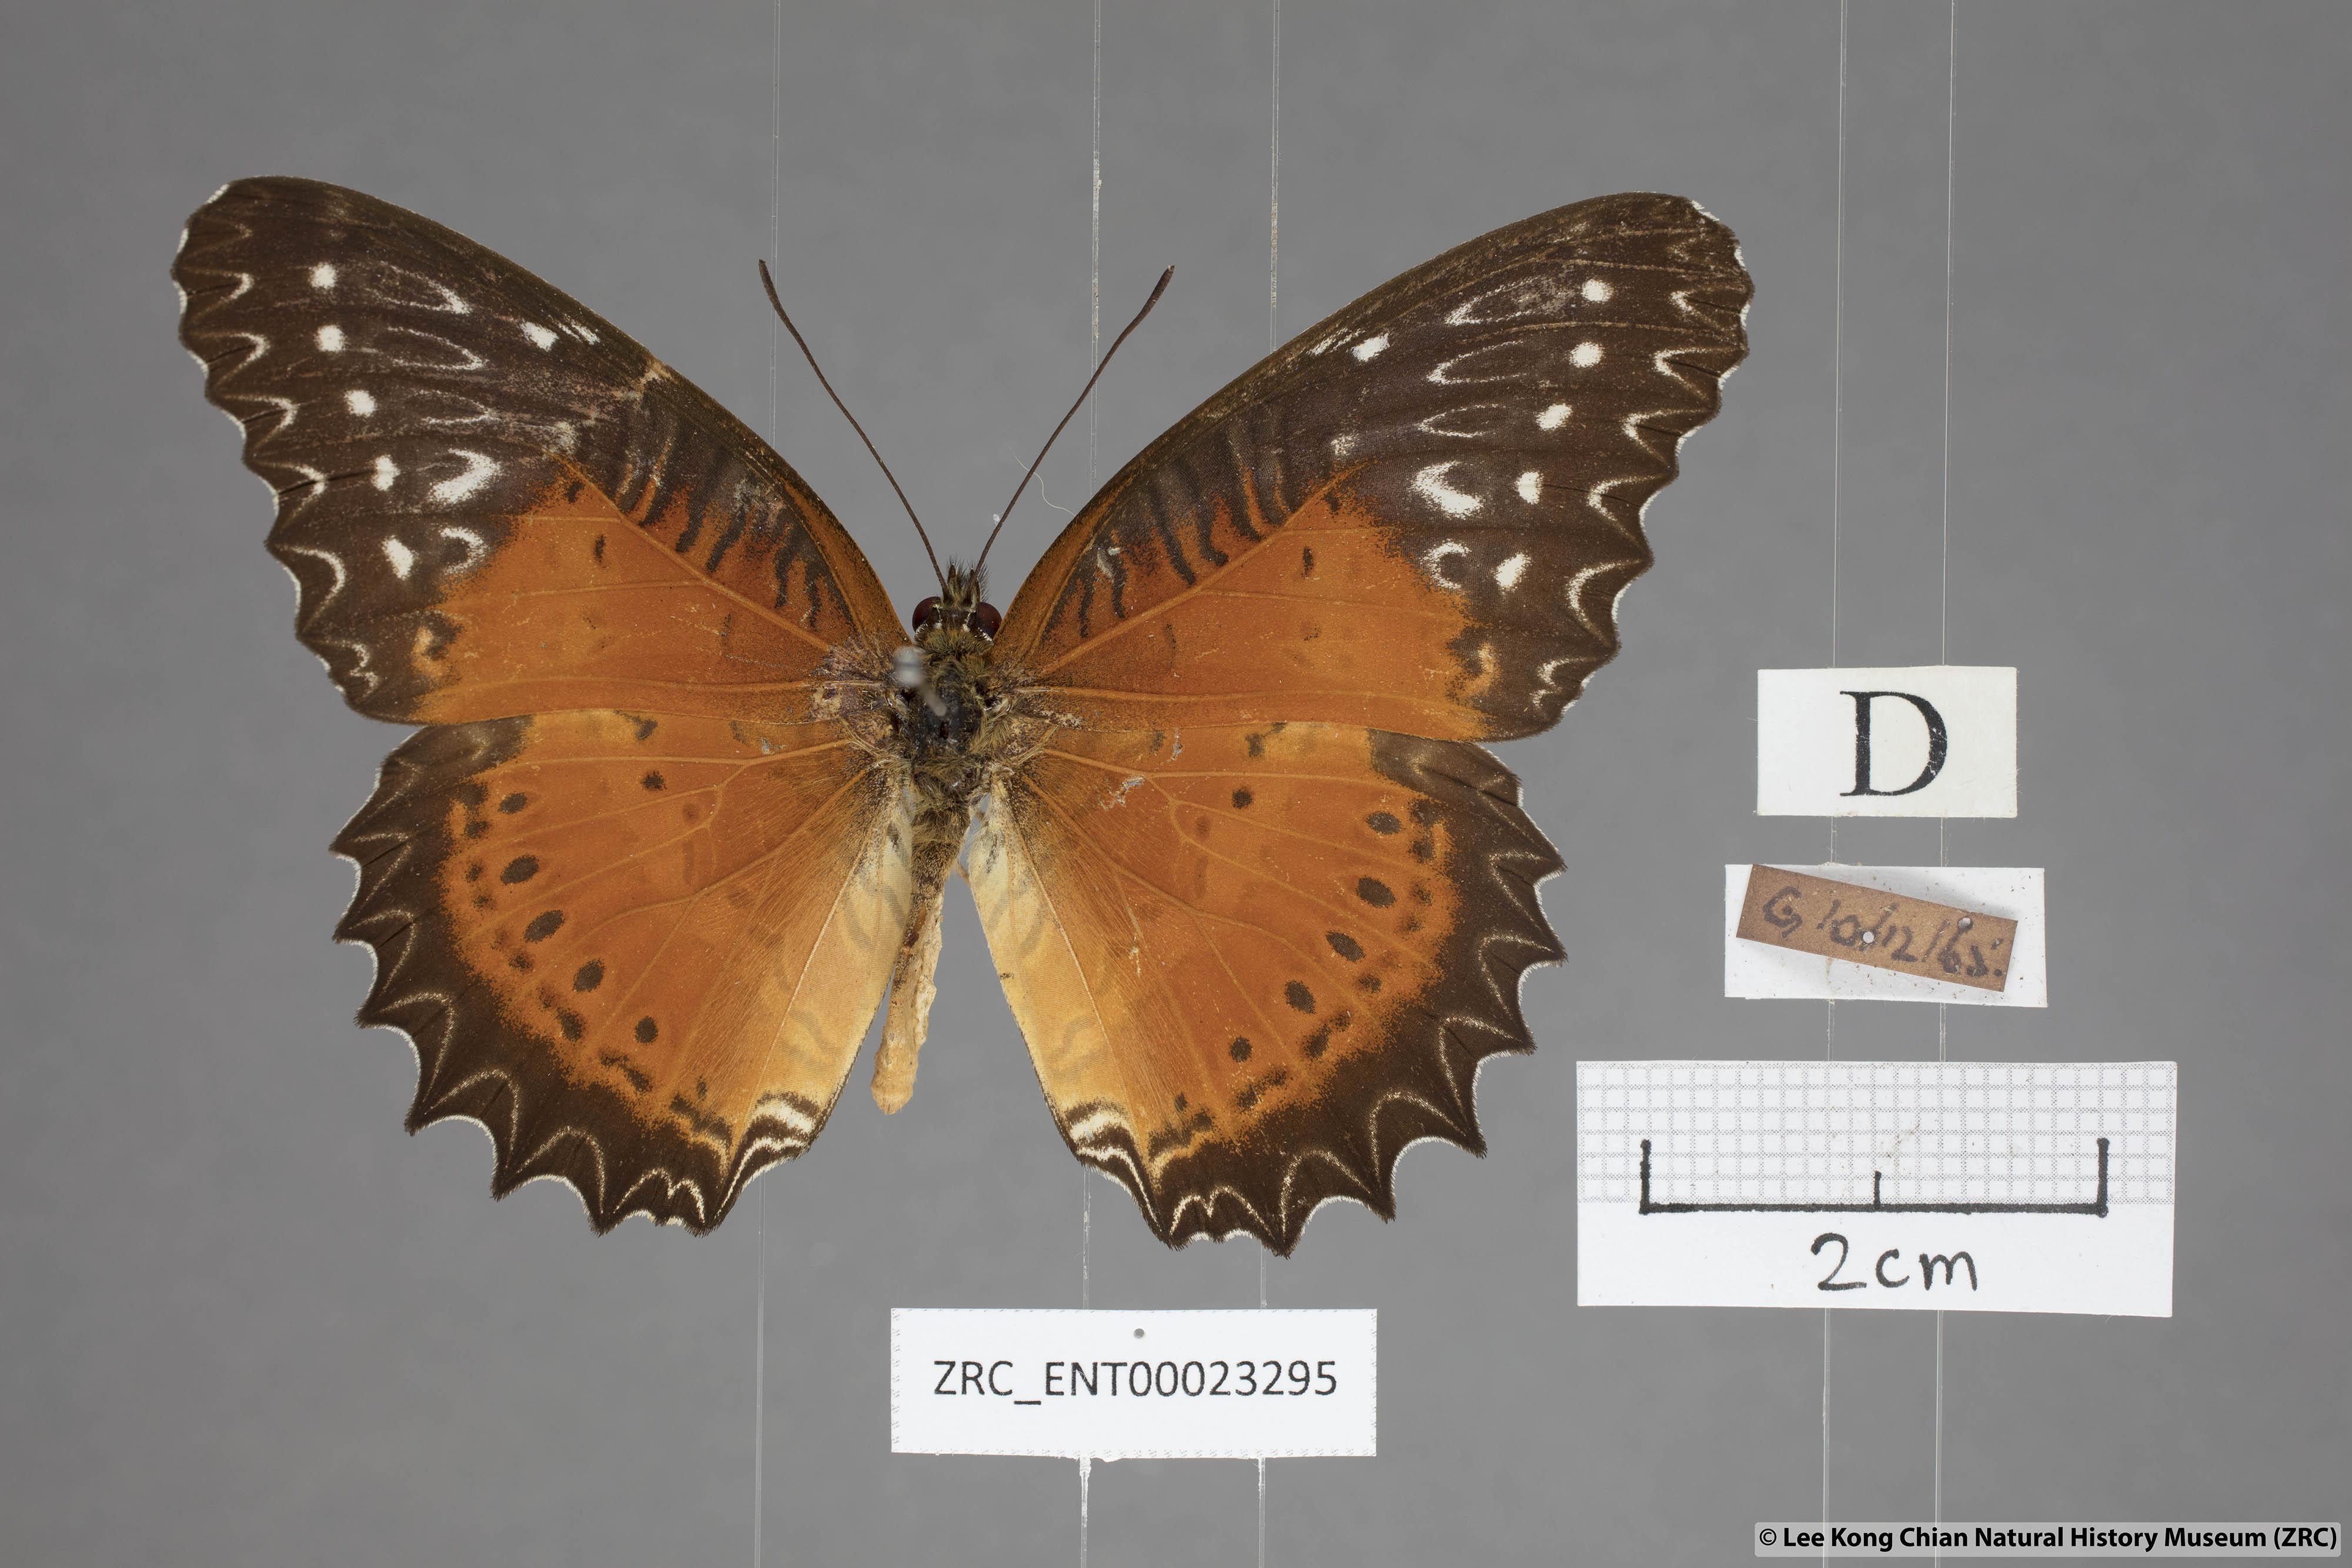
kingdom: Animalia
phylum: Arthropoda
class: Insecta
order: Lepidoptera
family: Nymphalidae
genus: Cethosia
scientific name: Cethosia biblis
